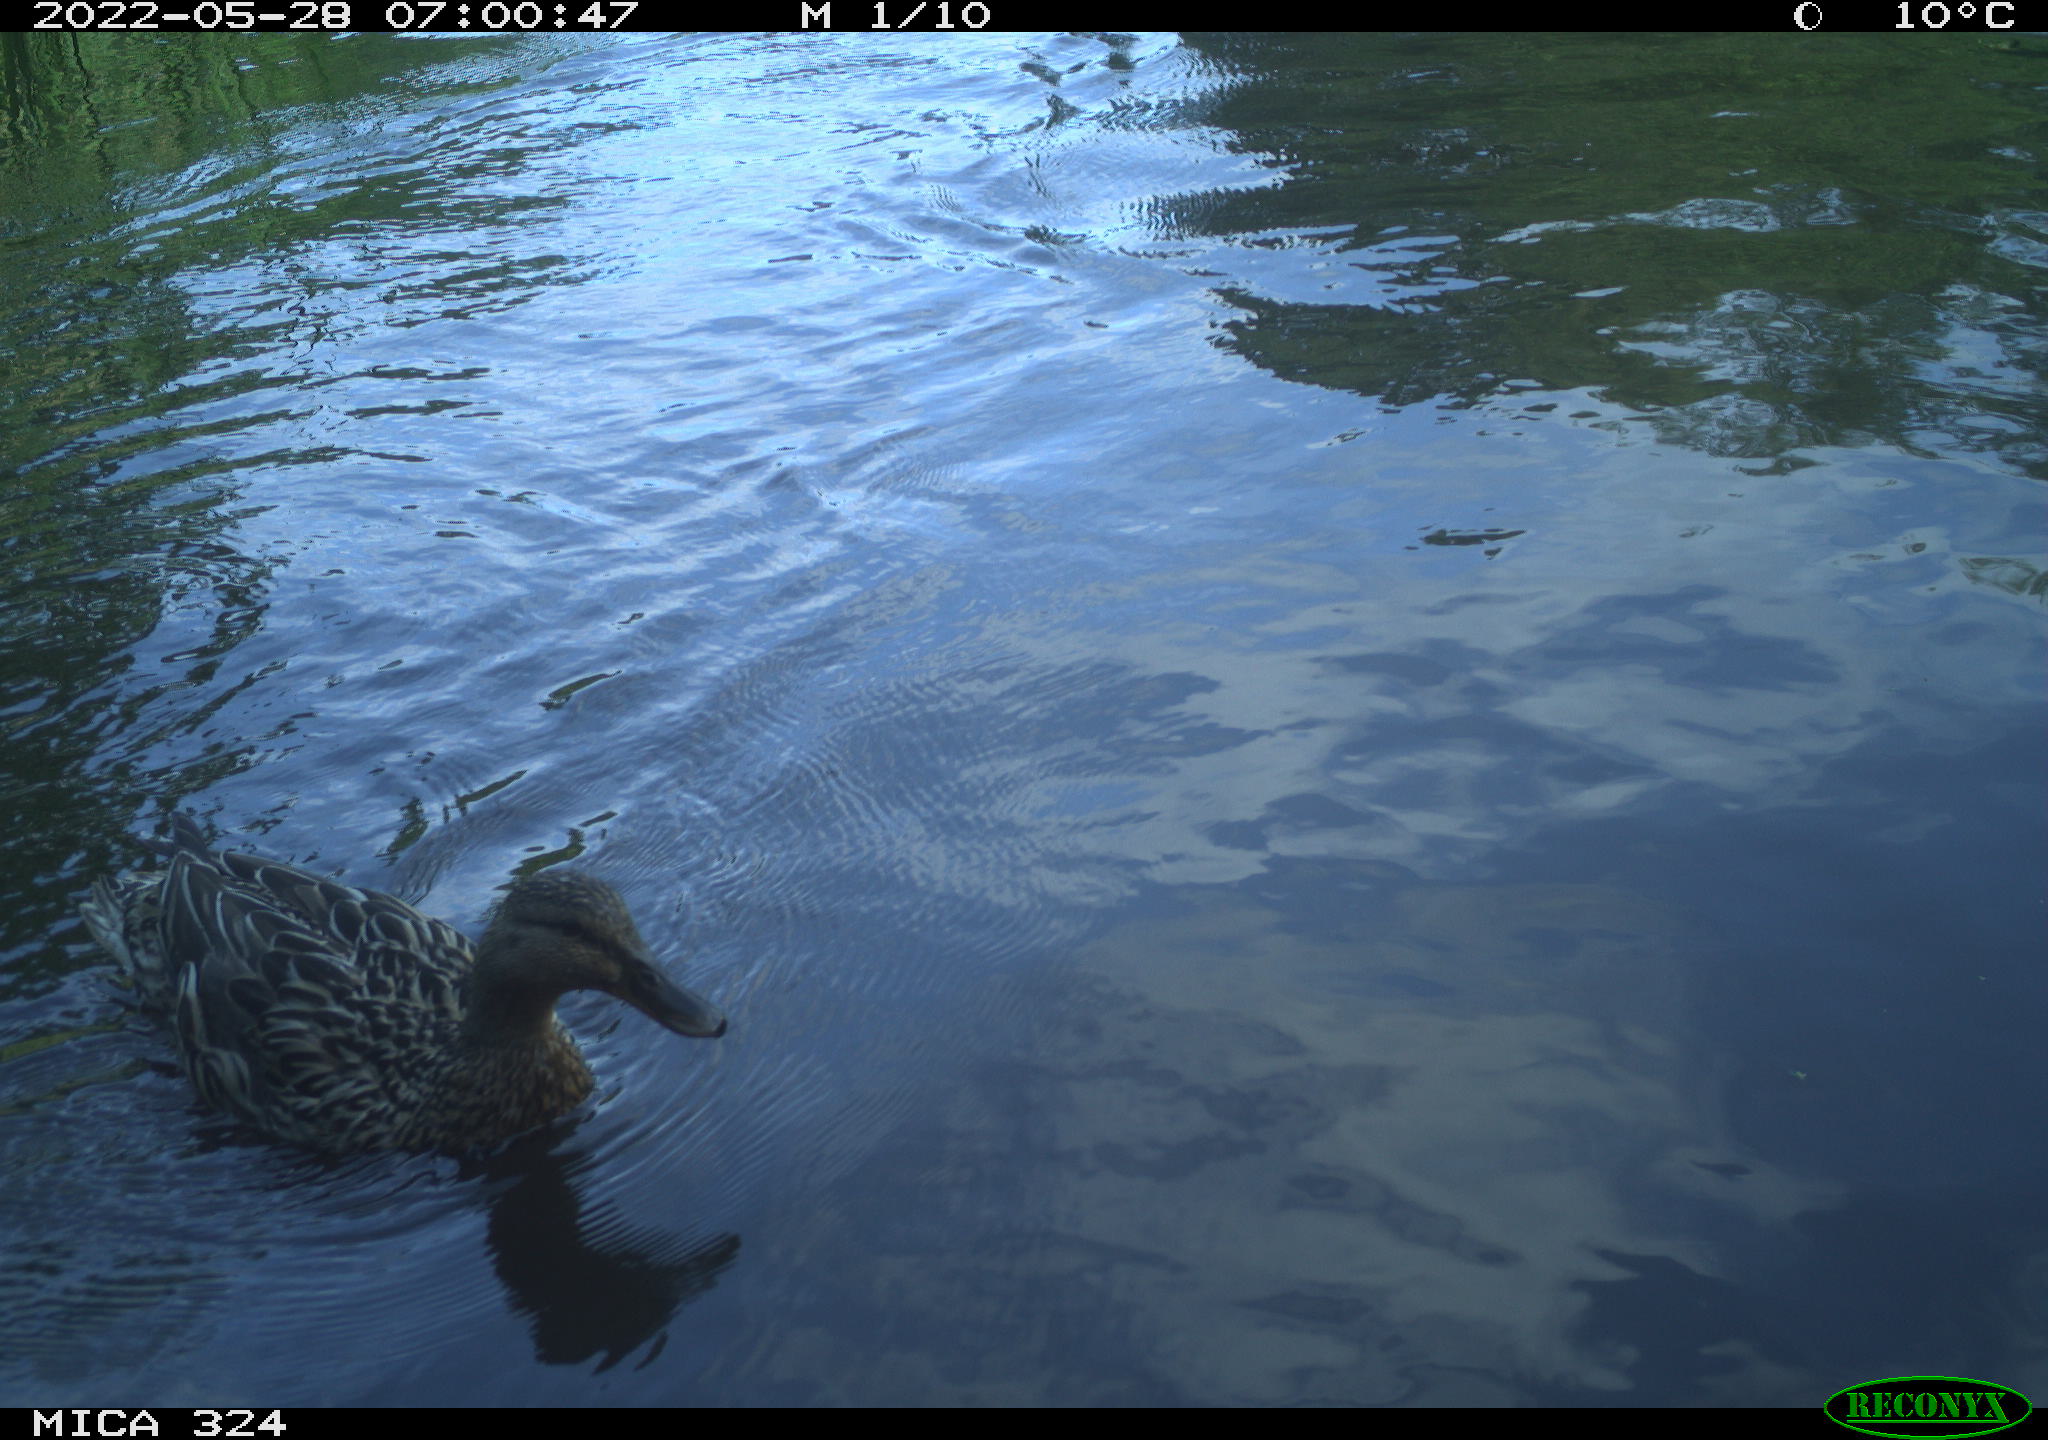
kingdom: Animalia
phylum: Chordata
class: Aves
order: Anseriformes
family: Anatidae
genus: Anas
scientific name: Anas platyrhynchos
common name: Mallard
